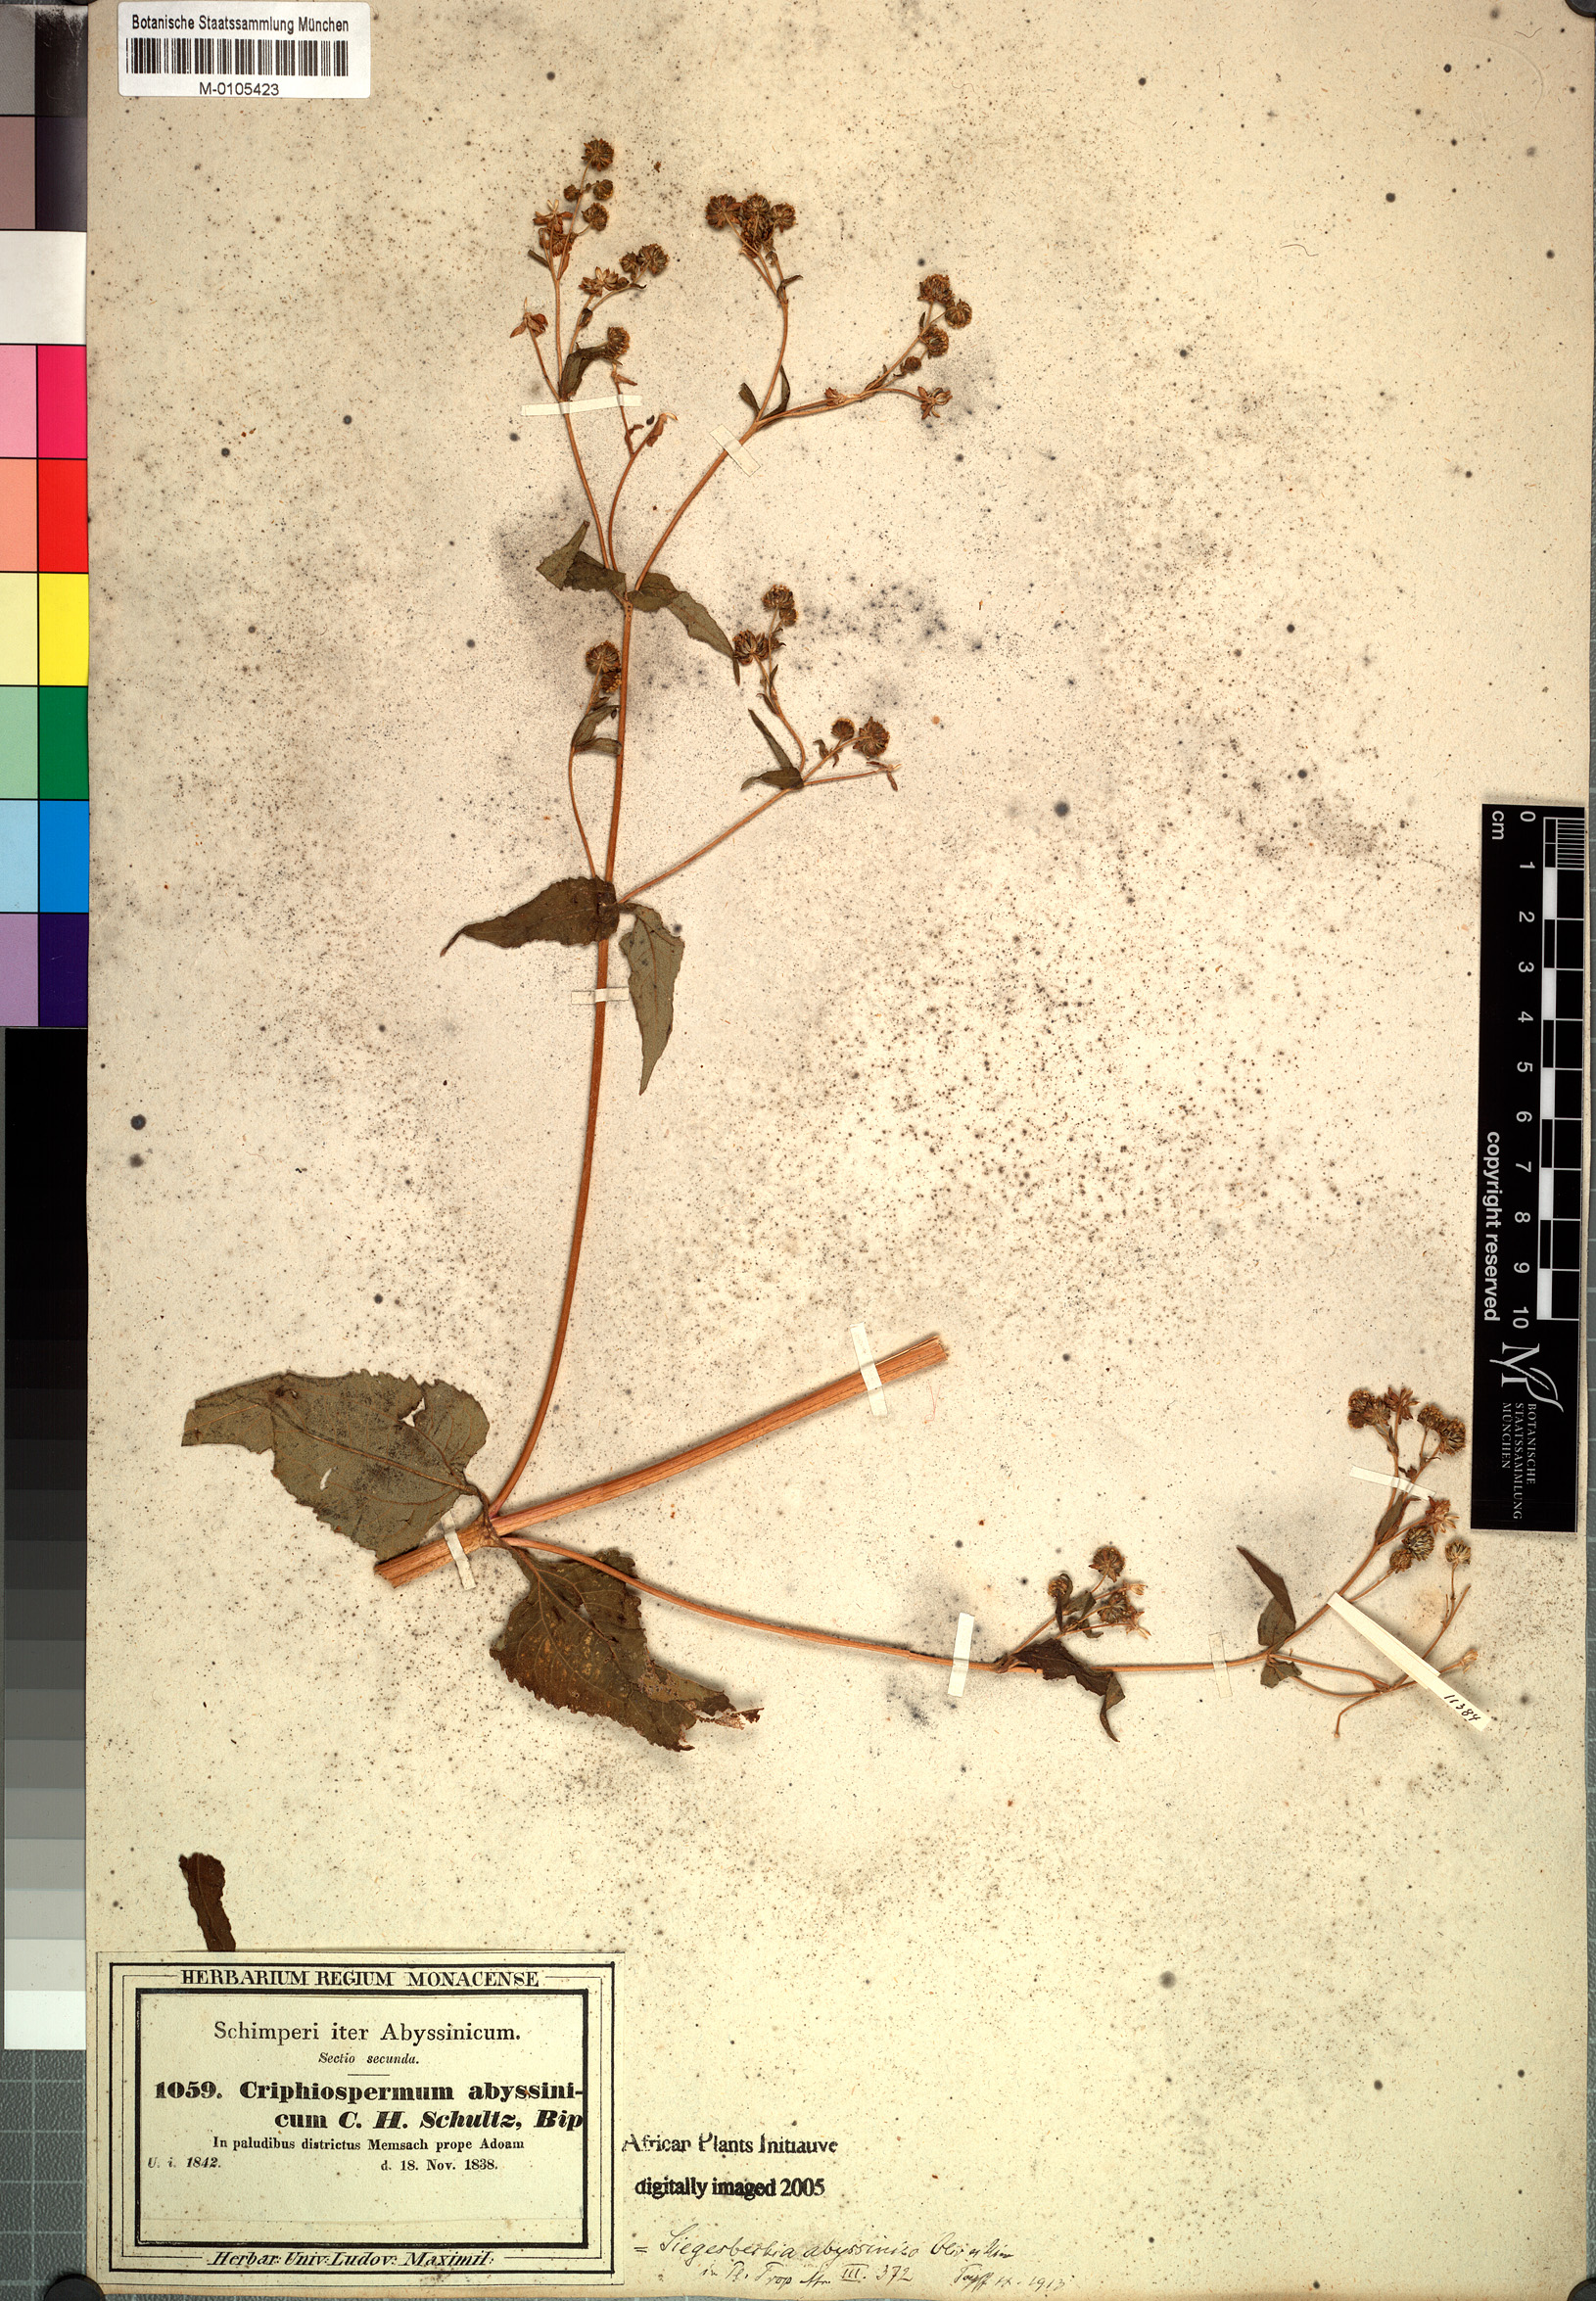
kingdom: Plantae
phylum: Tracheophyta
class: Magnoliopsida
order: Asterales
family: Asteraceae
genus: Micractis
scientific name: Micractis bojeri
